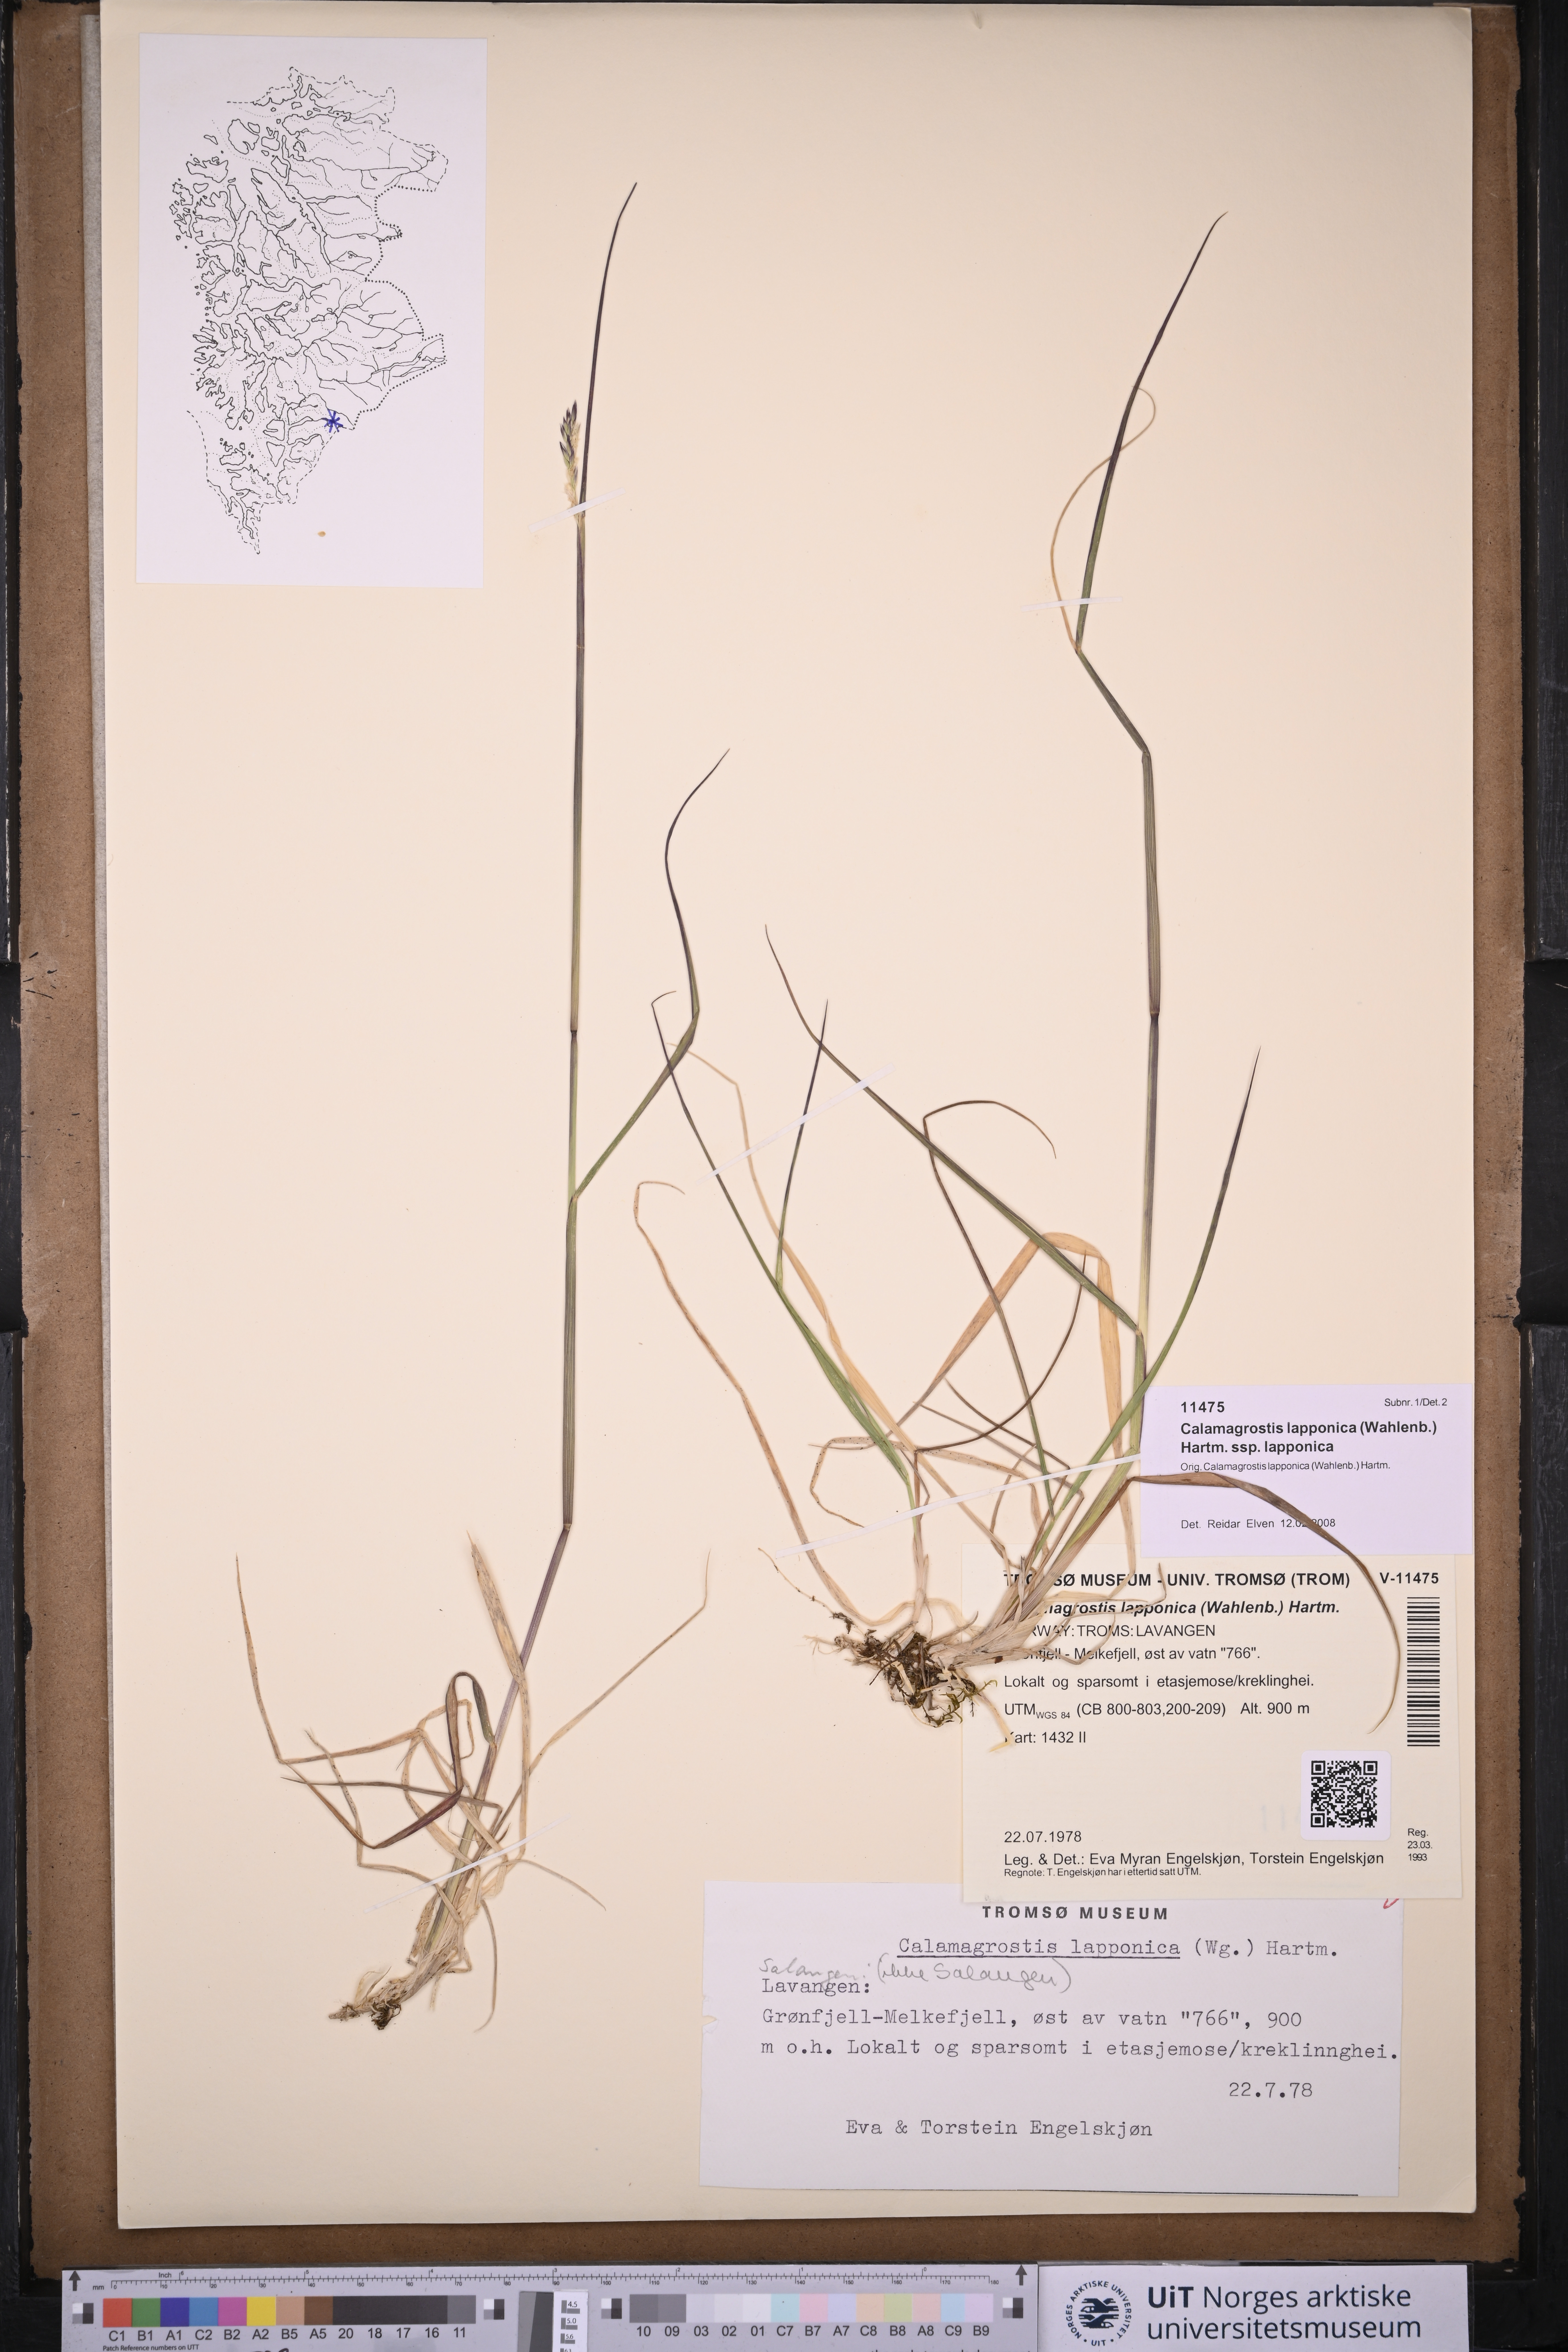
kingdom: Plantae
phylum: Tracheophyta
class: Liliopsida
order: Poales
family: Poaceae
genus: Calamagrostis
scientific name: Calamagrostis lapponica
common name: Lapland reedgrass
